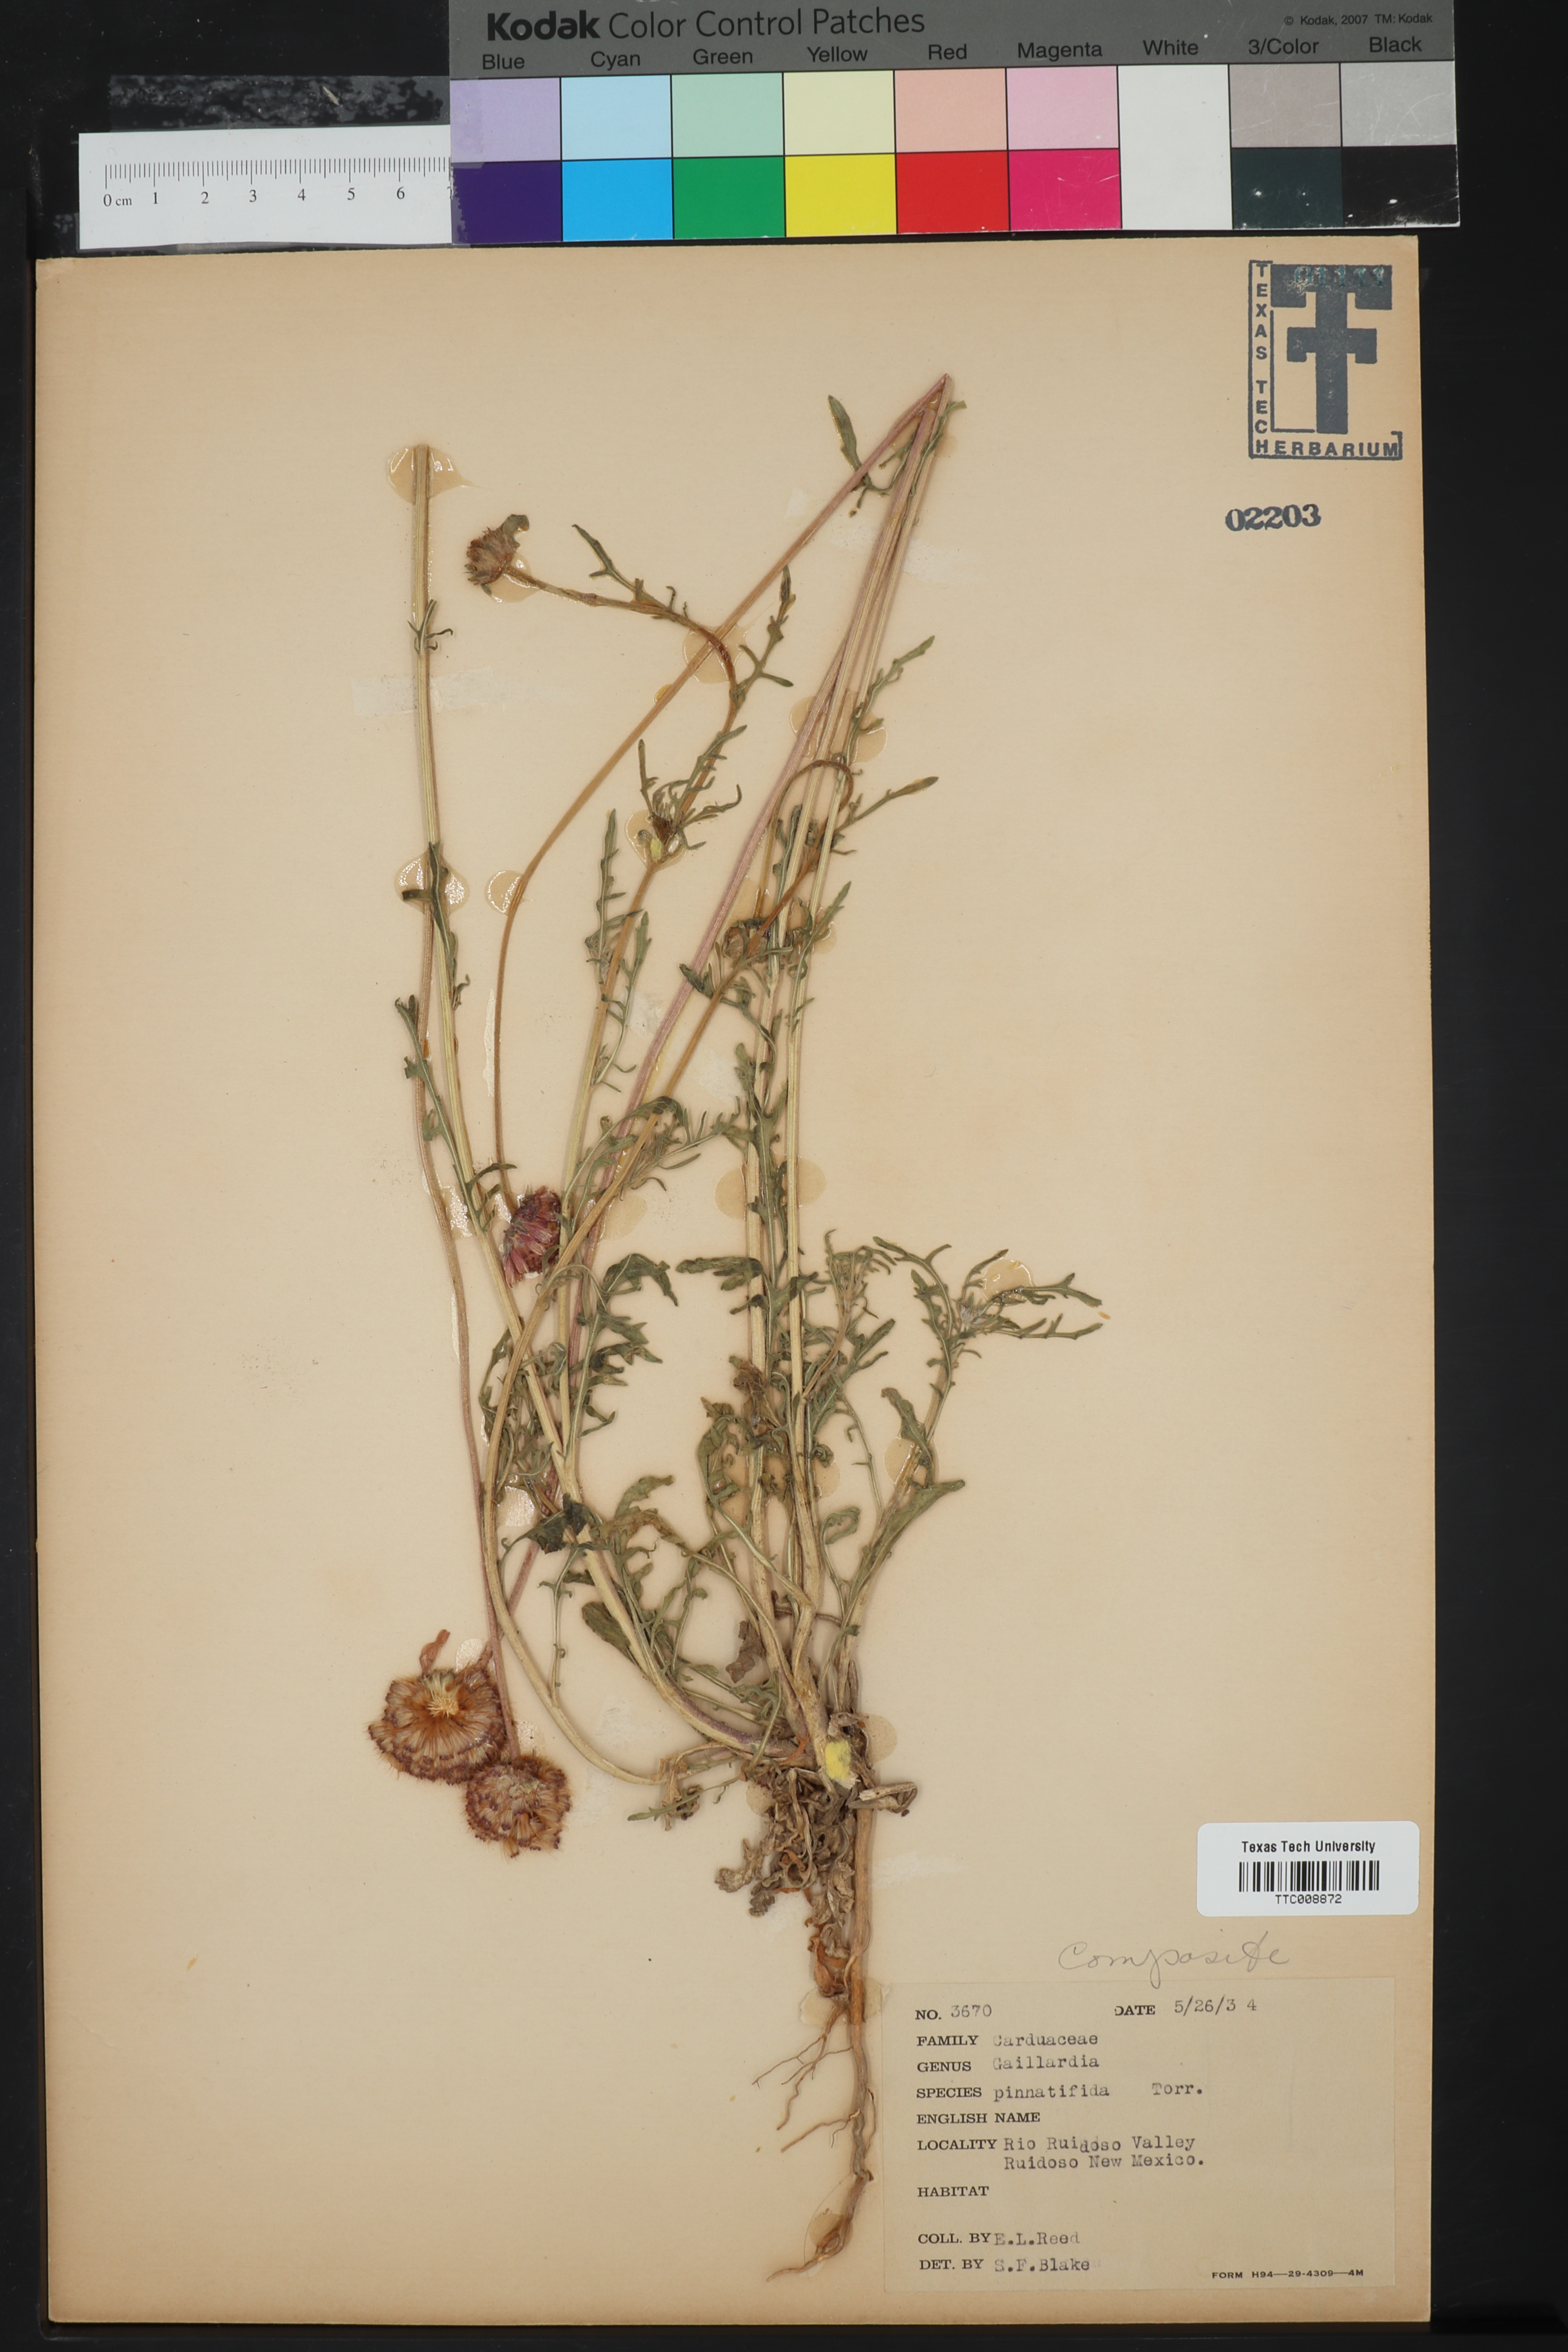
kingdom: Plantae
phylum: Tracheophyta
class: Magnoliopsida
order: Asterales
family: Asteraceae
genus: Gaillardia
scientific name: Gaillardia pinnatifida
